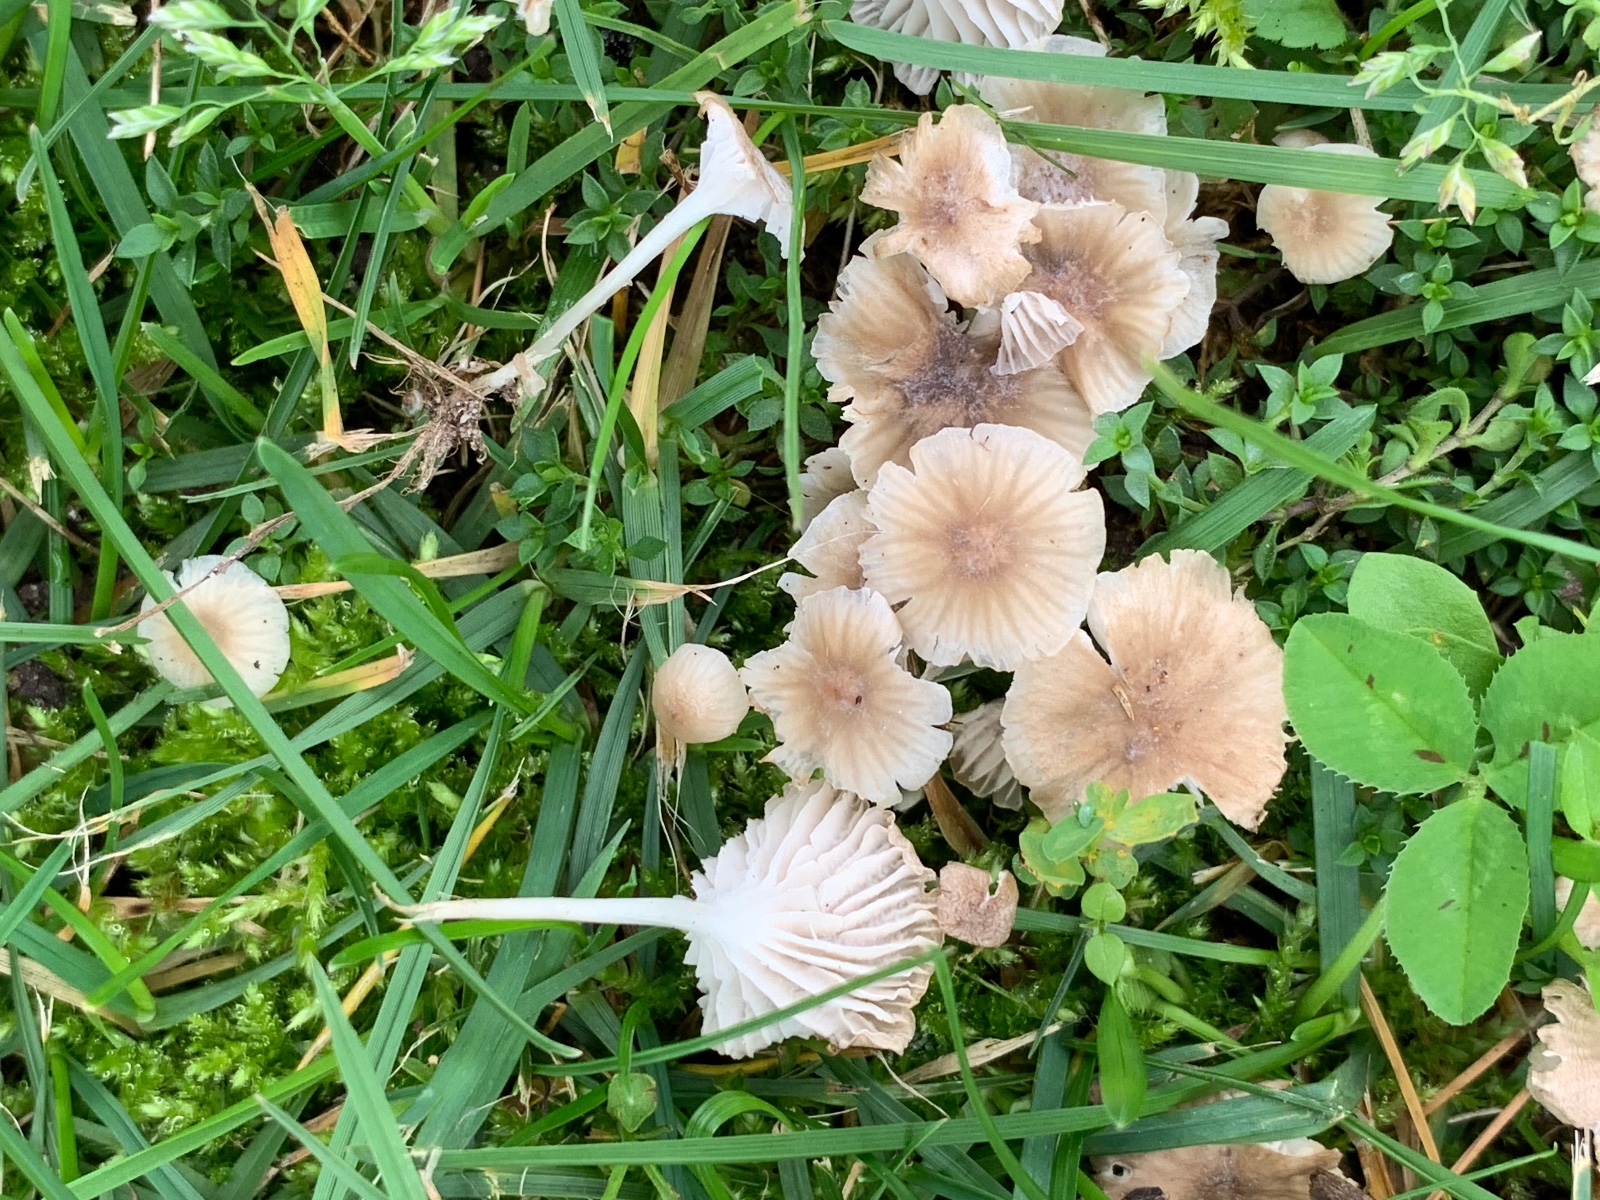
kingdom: Fungi
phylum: Basidiomycota
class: Agaricomycetes
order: Agaricales
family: Mycenaceae
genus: Hemimycena
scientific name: Hemimycena mairei
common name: voks-huesvamp
